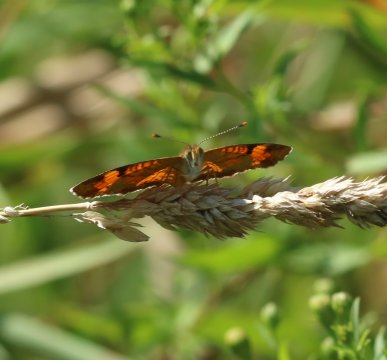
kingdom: Animalia
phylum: Arthropoda
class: Insecta
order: Lepidoptera
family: Nymphalidae
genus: Phyciodes
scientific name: Phyciodes
